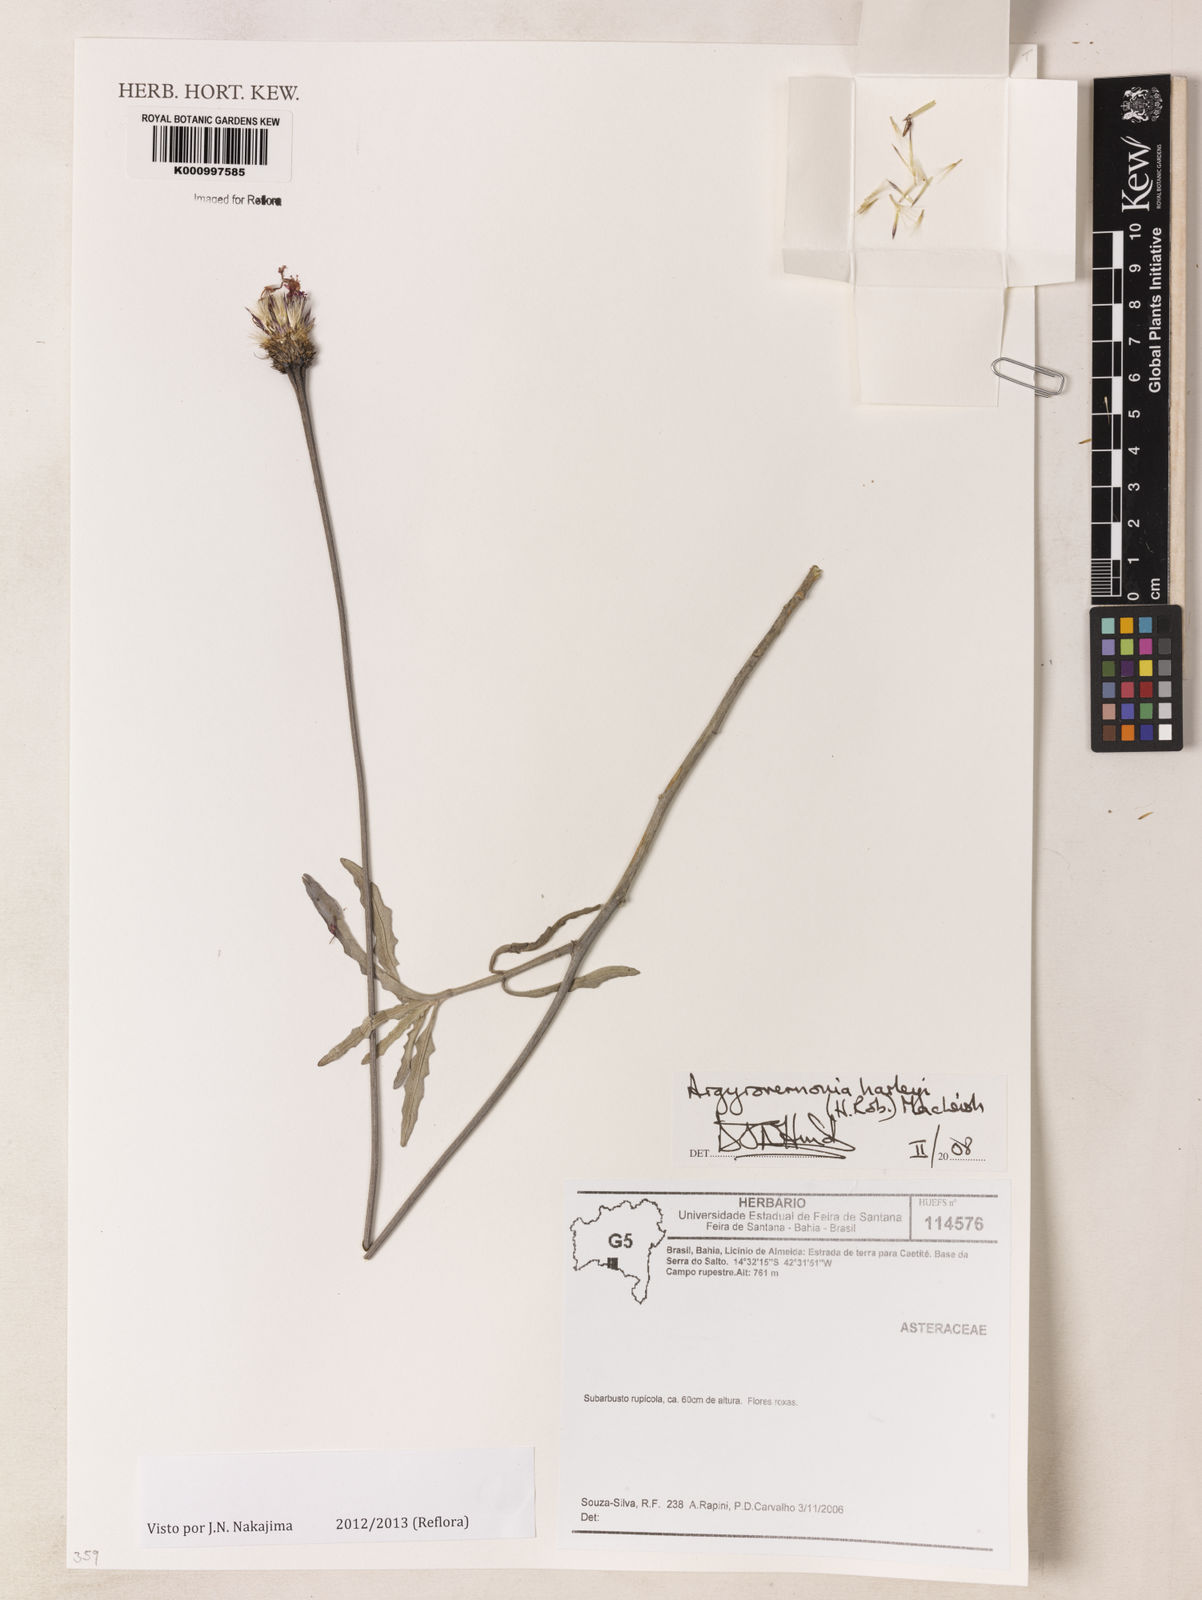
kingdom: Plantae
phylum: Tracheophyta
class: Magnoliopsida
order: Asterales
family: Asteraceae
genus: Chresta
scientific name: Chresta harleyi
